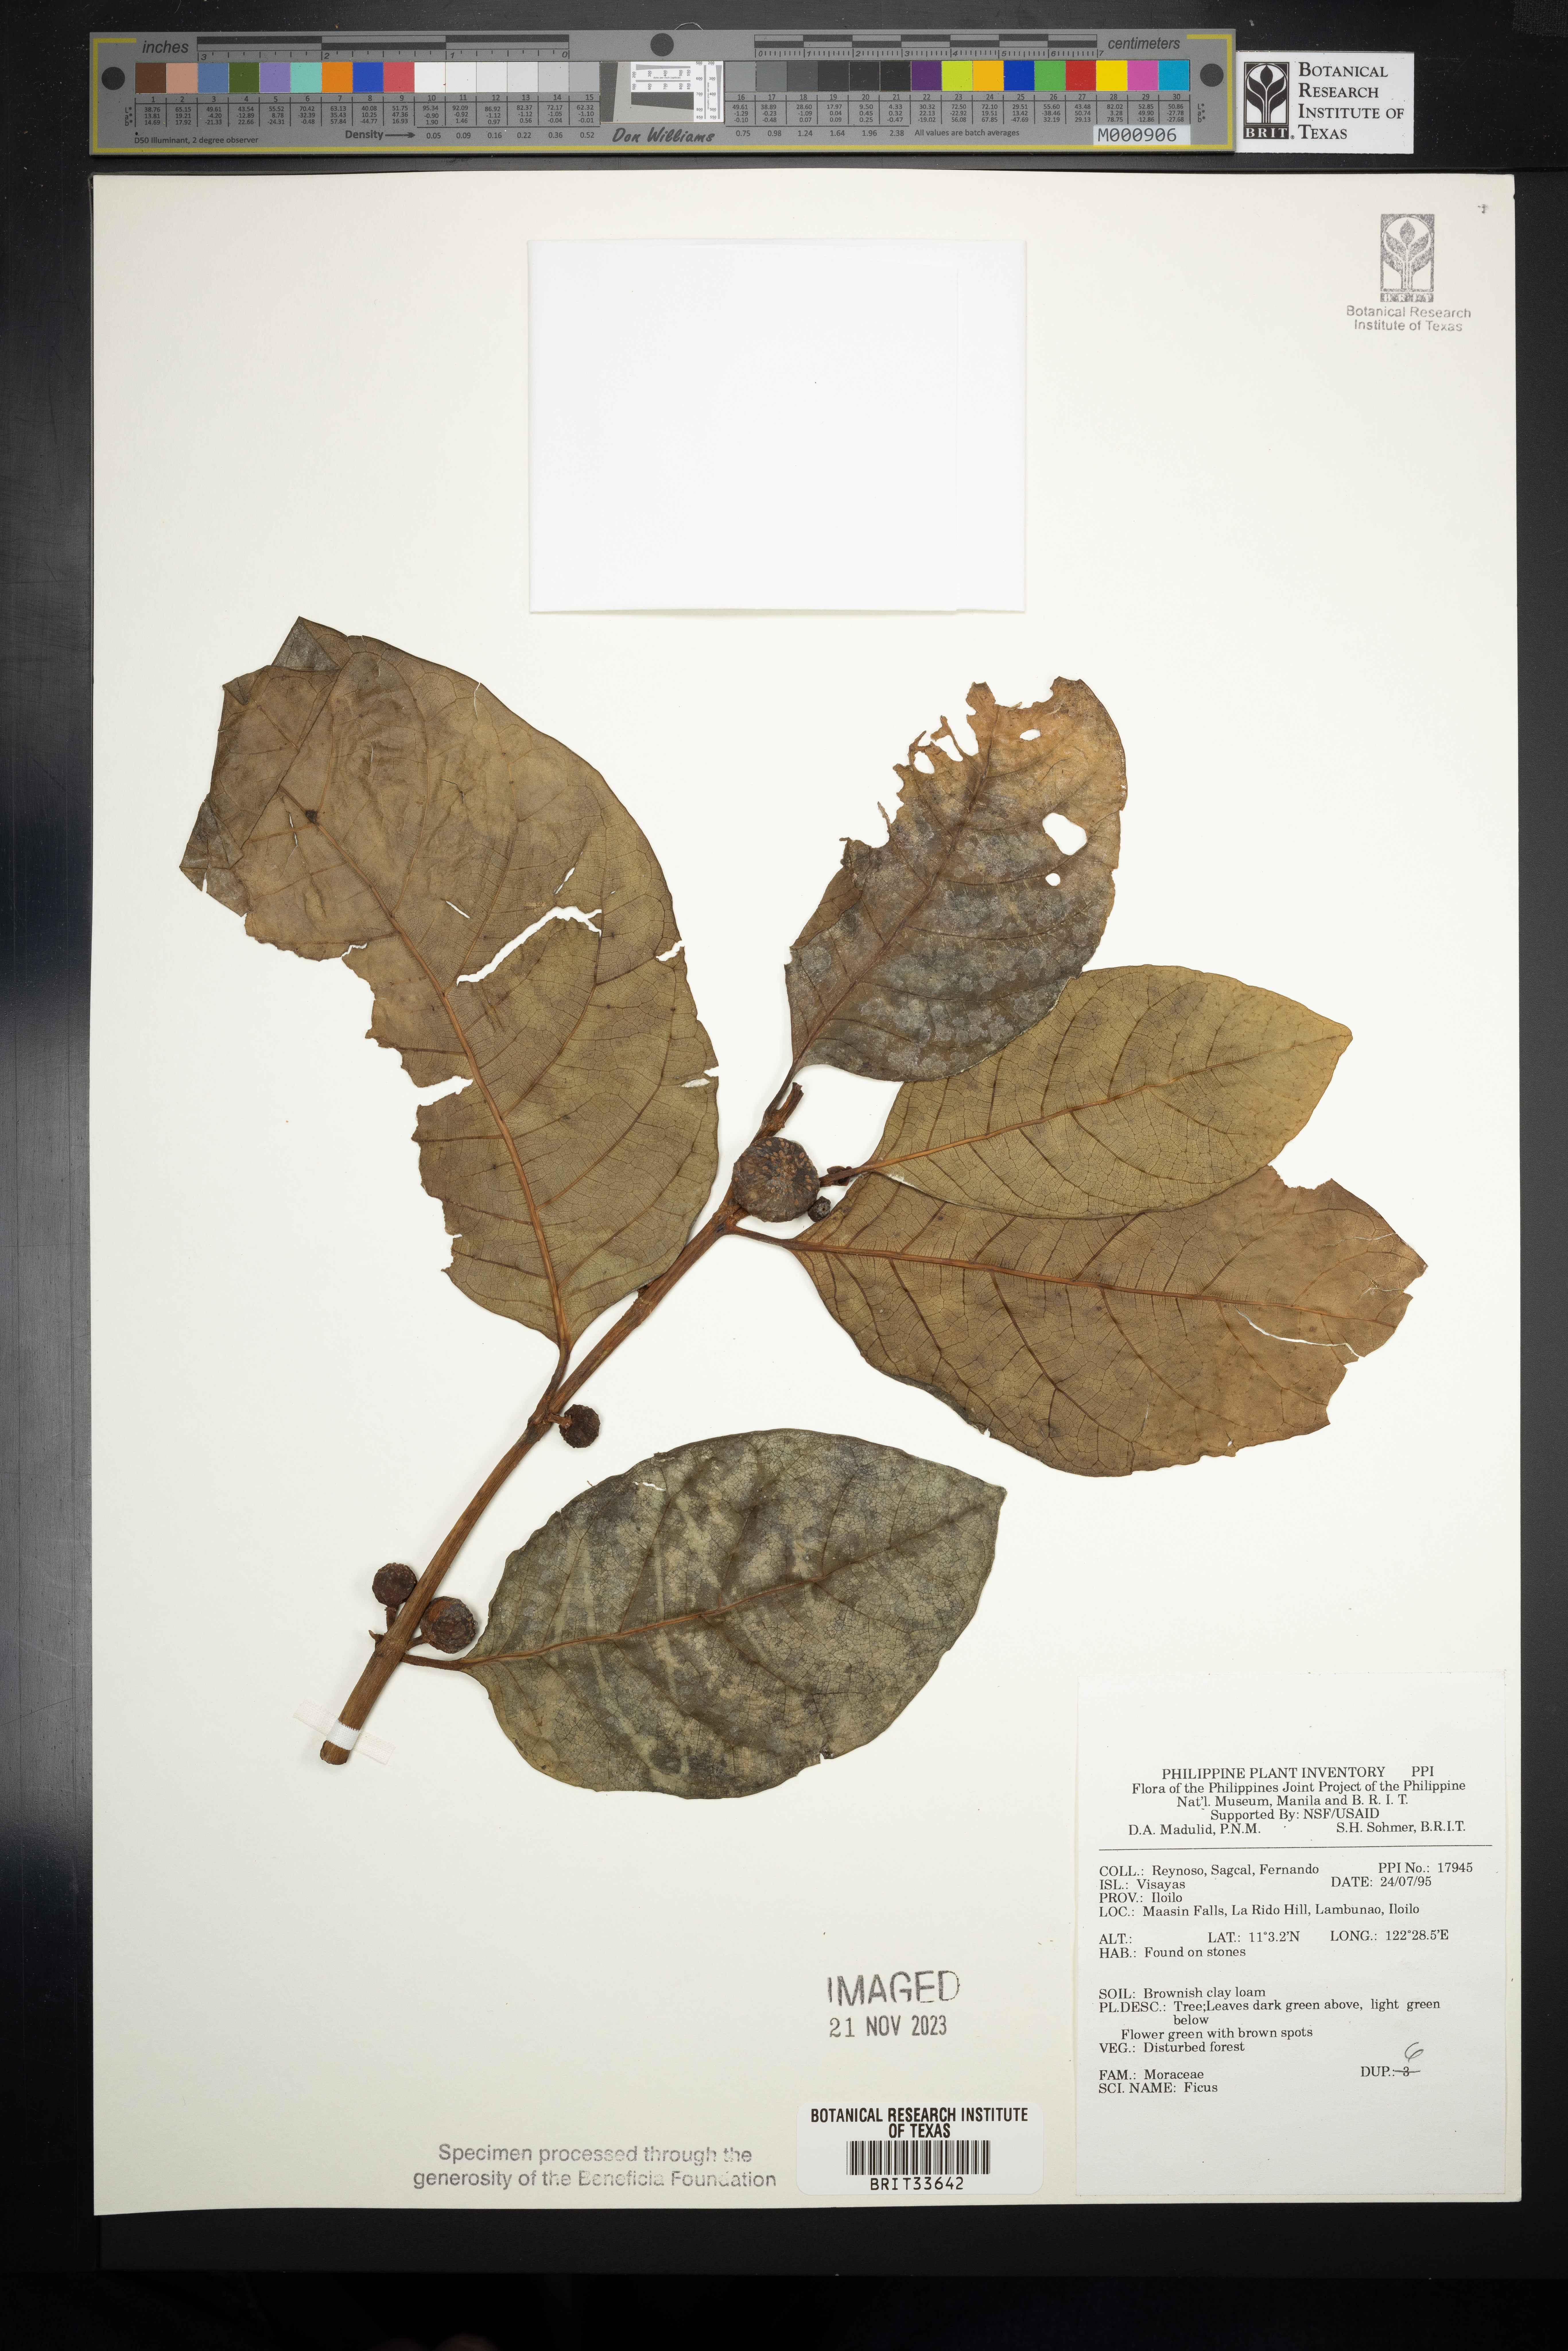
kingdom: Plantae
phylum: Tracheophyta
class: Magnoliopsida
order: Rosales
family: Moraceae
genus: Ficus
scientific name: Ficus
